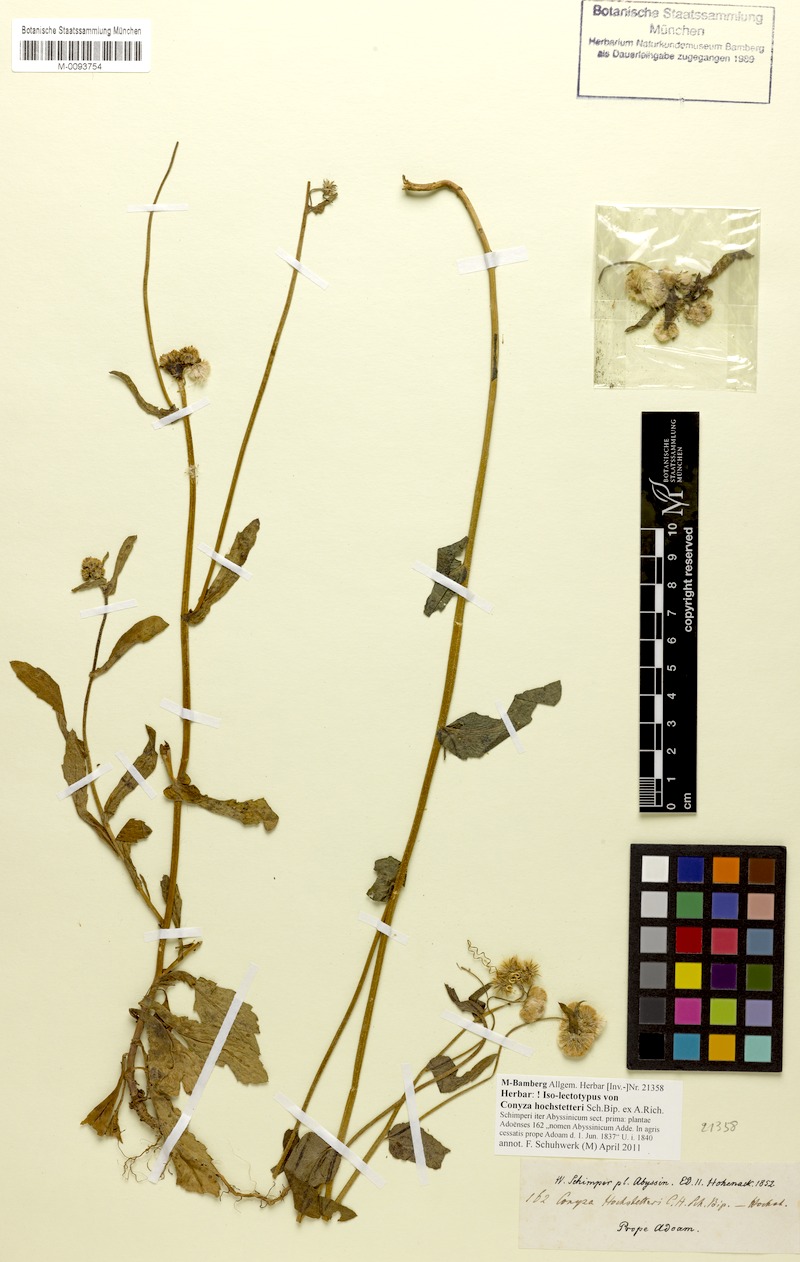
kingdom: Plantae
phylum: Tracheophyta
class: Magnoliopsida
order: Asterales
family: Asteraceae
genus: Eschenbachia
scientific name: Eschenbachia gouanii
